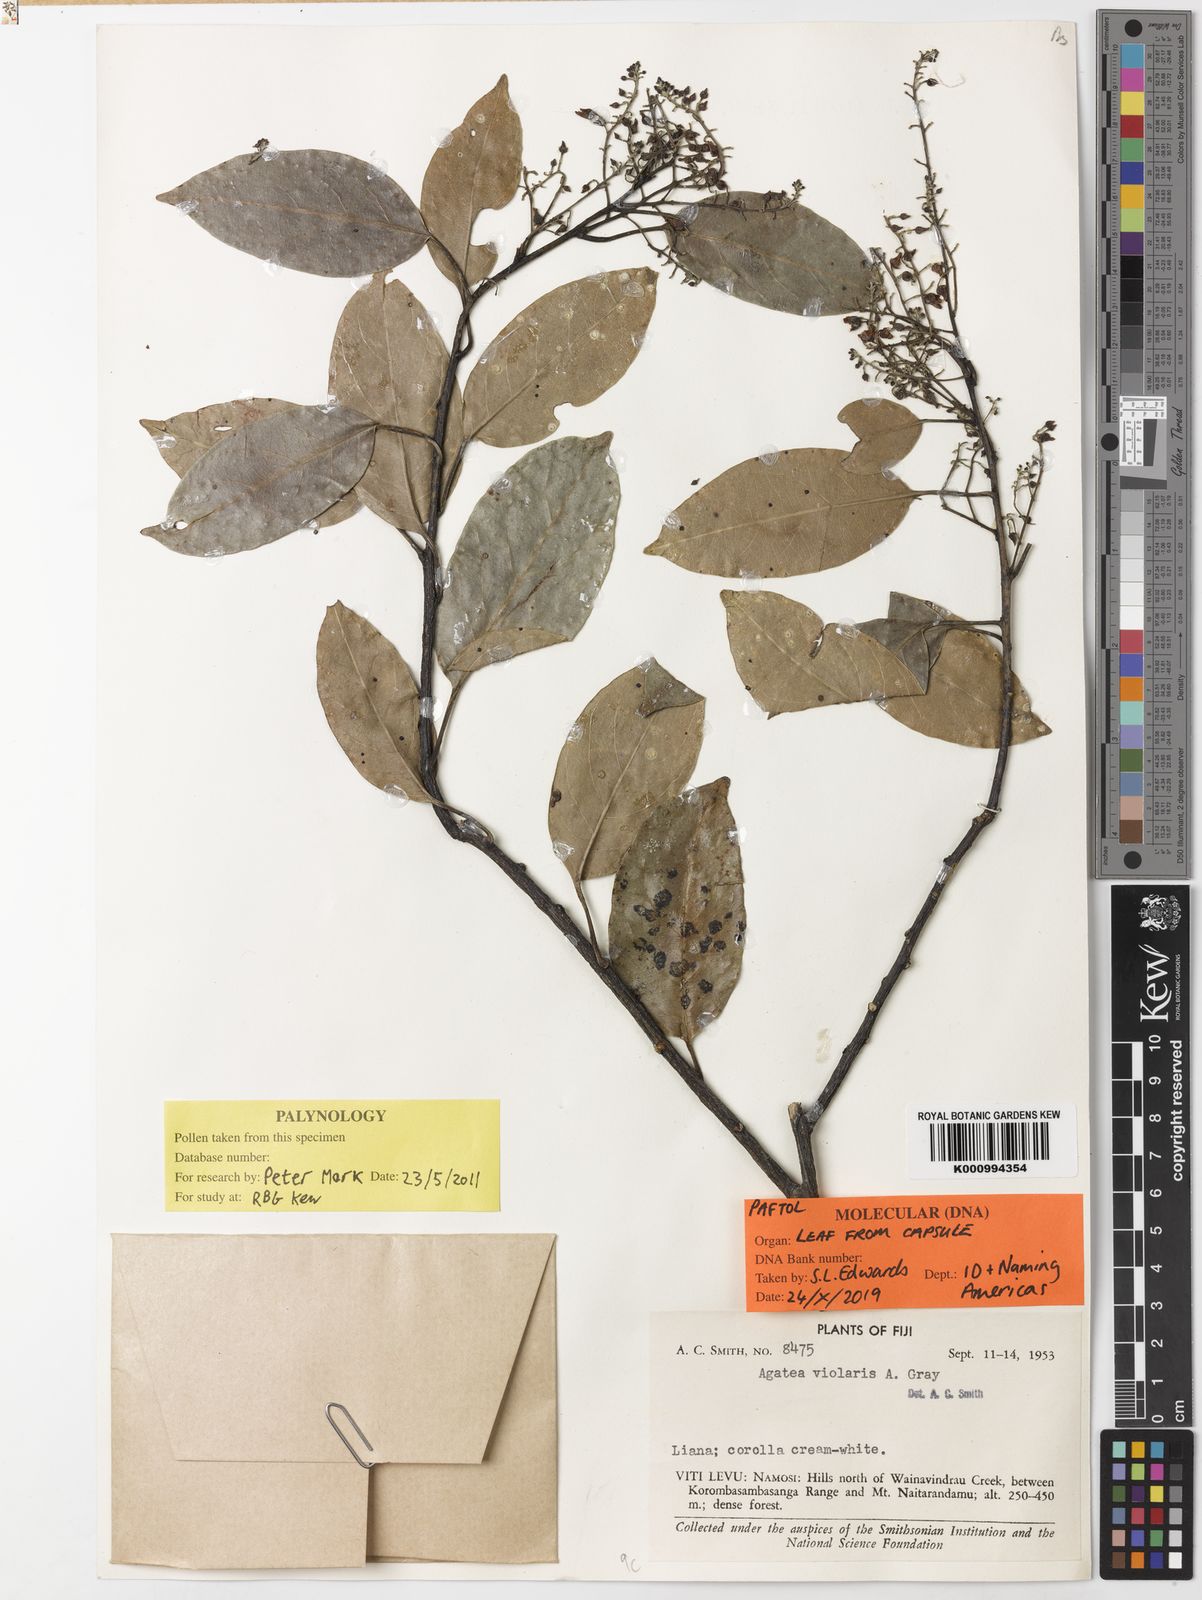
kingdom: Plantae
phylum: Tracheophyta
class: Magnoliopsida
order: Malpighiales
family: Violaceae
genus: Agatea
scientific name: Agatea
